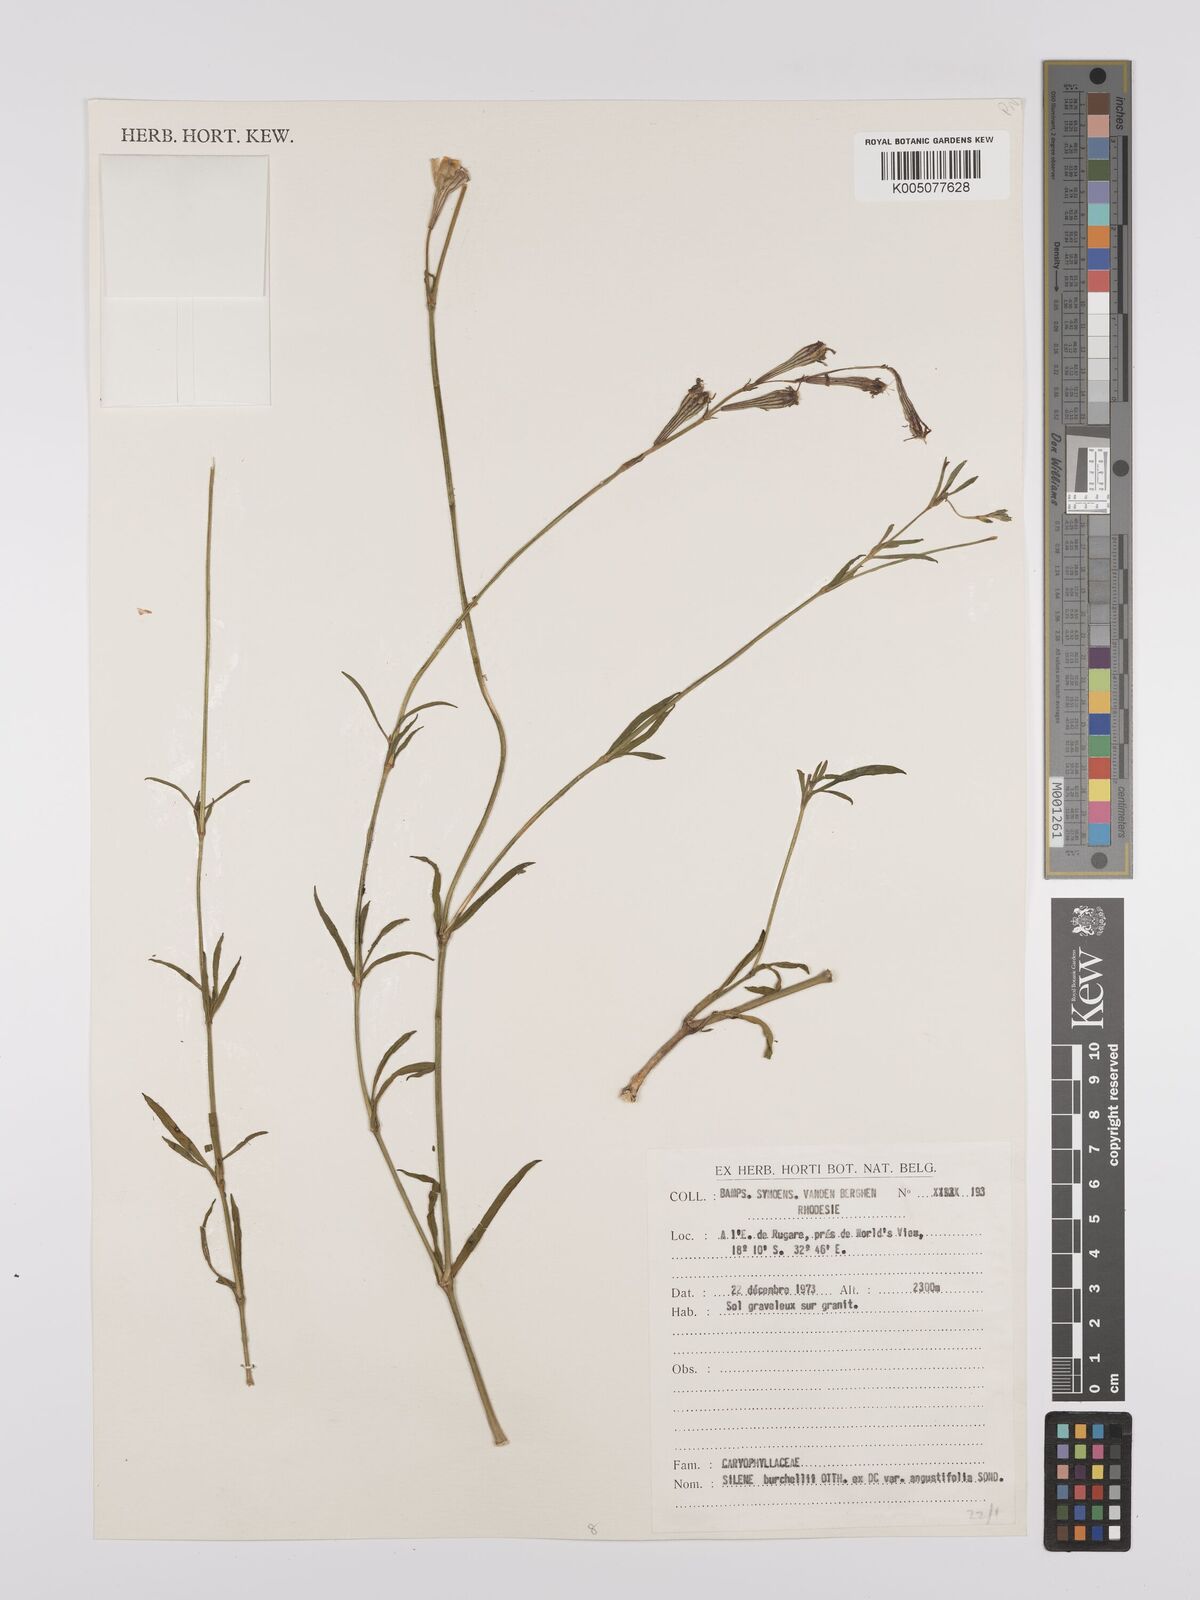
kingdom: Plantae
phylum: Tracheophyta
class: Magnoliopsida
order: Caryophyllales
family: Caryophyllaceae
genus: Silene
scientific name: Silene burchellii
